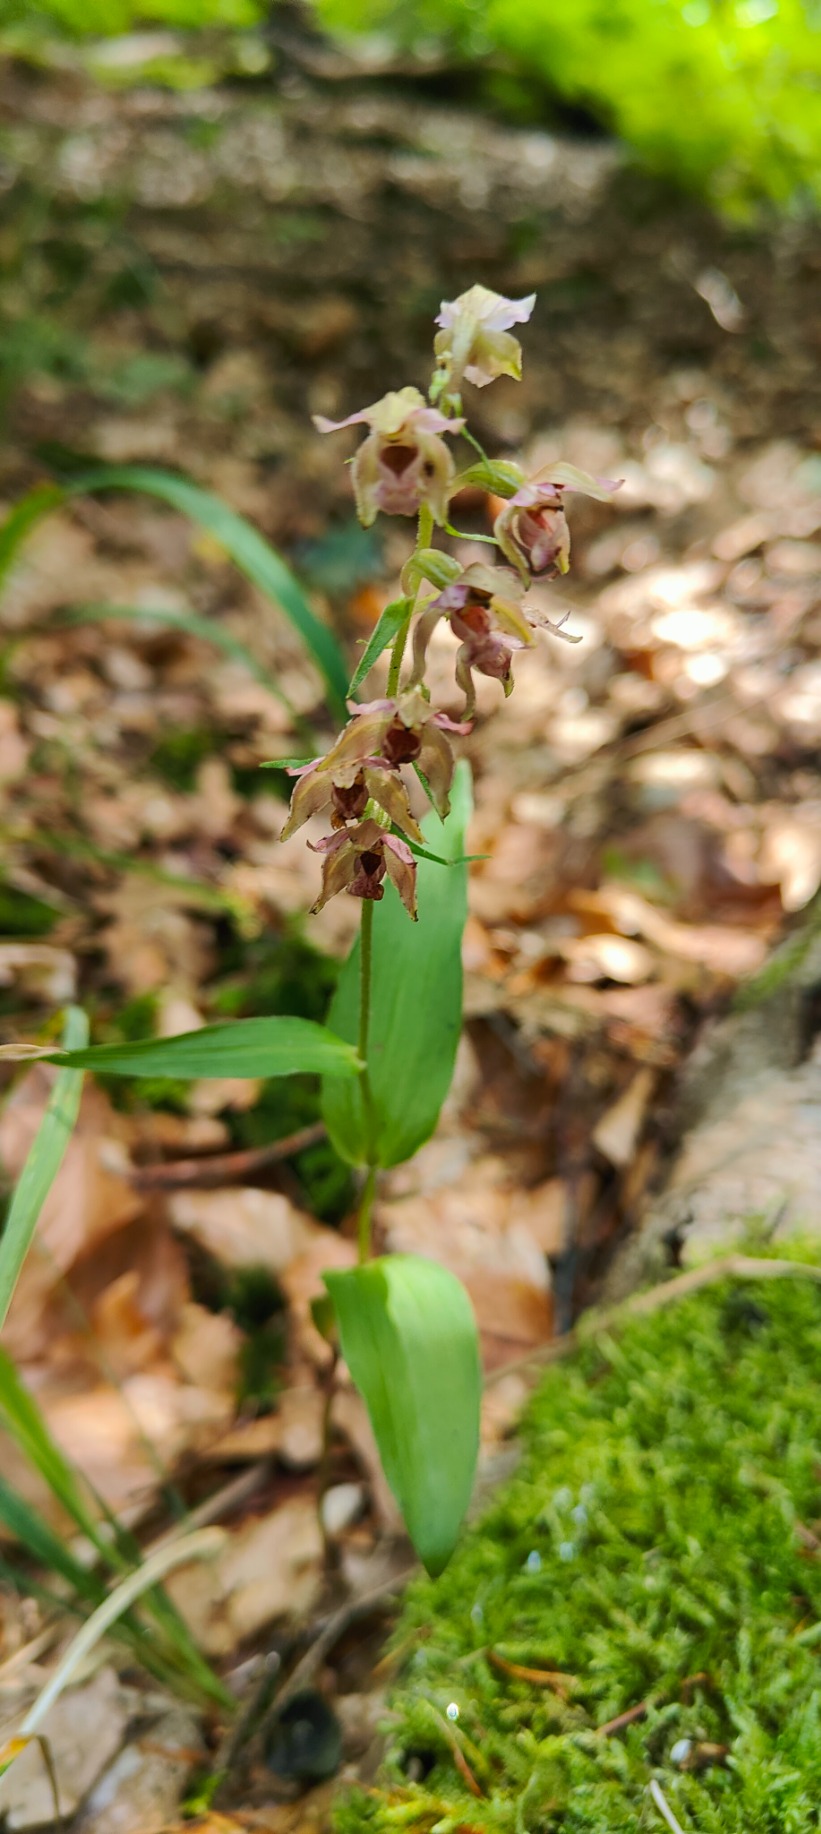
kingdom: Plantae
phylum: Tracheophyta
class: Liliopsida
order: Asparagales
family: Orchidaceae
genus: Epipactis
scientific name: Epipactis helleborine
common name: Skov-hullæbe
